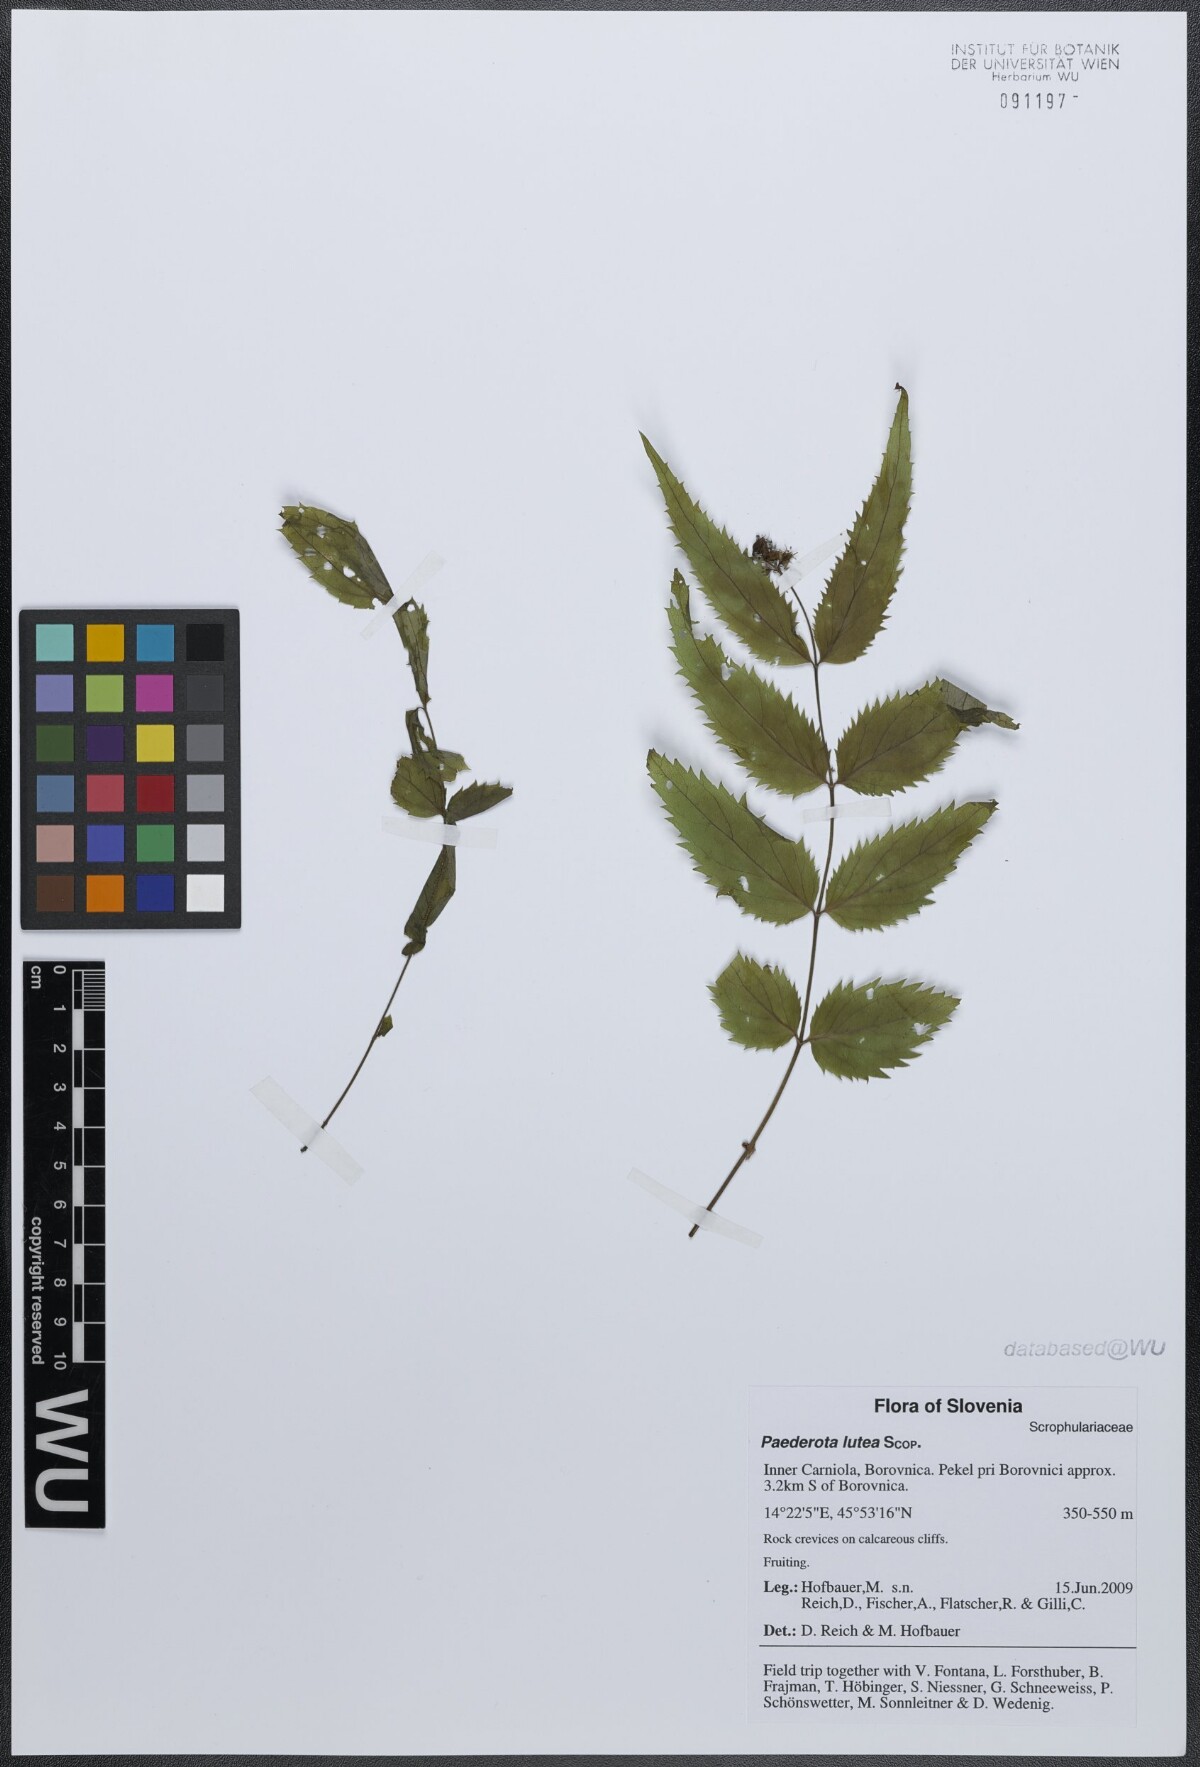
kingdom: Plantae
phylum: Tracheophyta
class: Magnoliopsida
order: Lamiales
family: Plantaginaceae
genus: Paederota
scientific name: Paederota lutea
